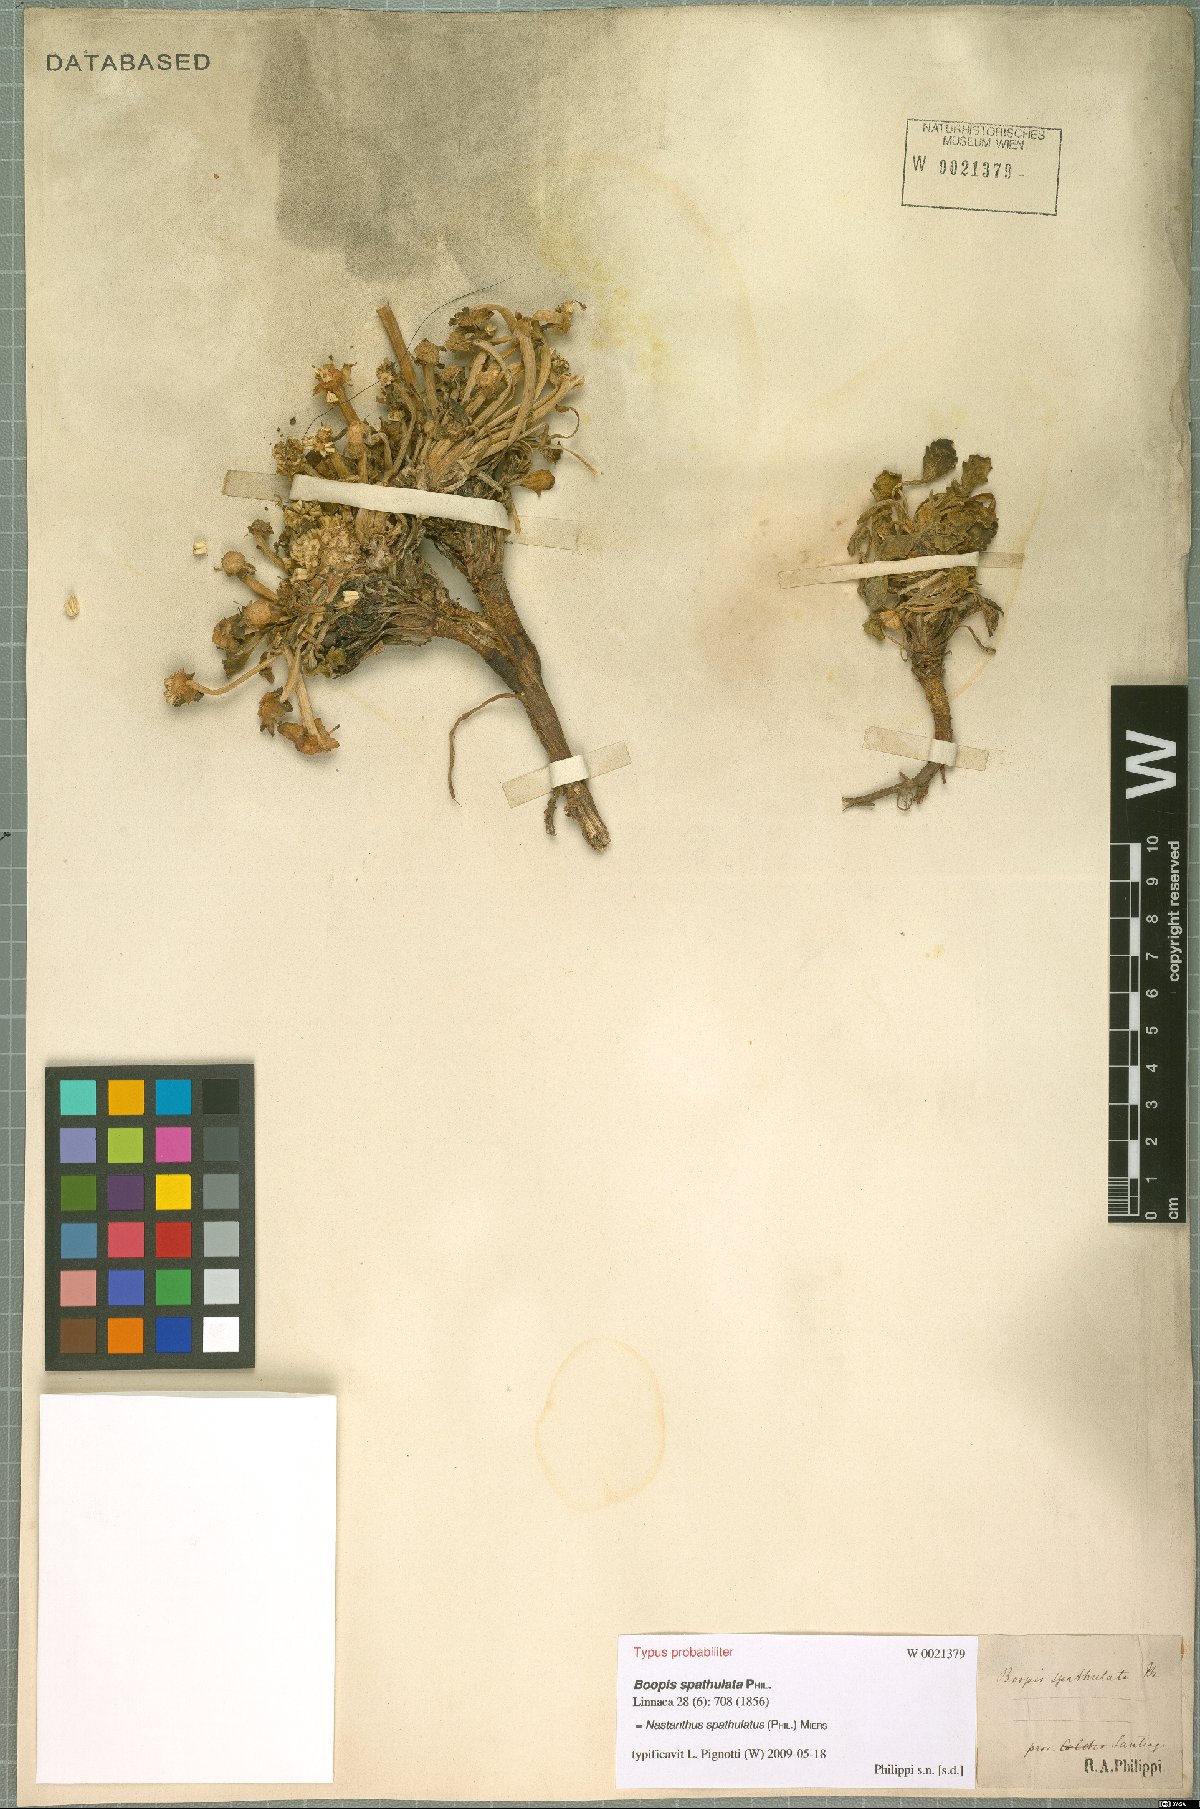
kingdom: Plantae
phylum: Tracheophyta
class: Magnoliopsida
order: Asterales
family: Calyceraceae
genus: Gamocarpha
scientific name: Gamocarpha scapigera
